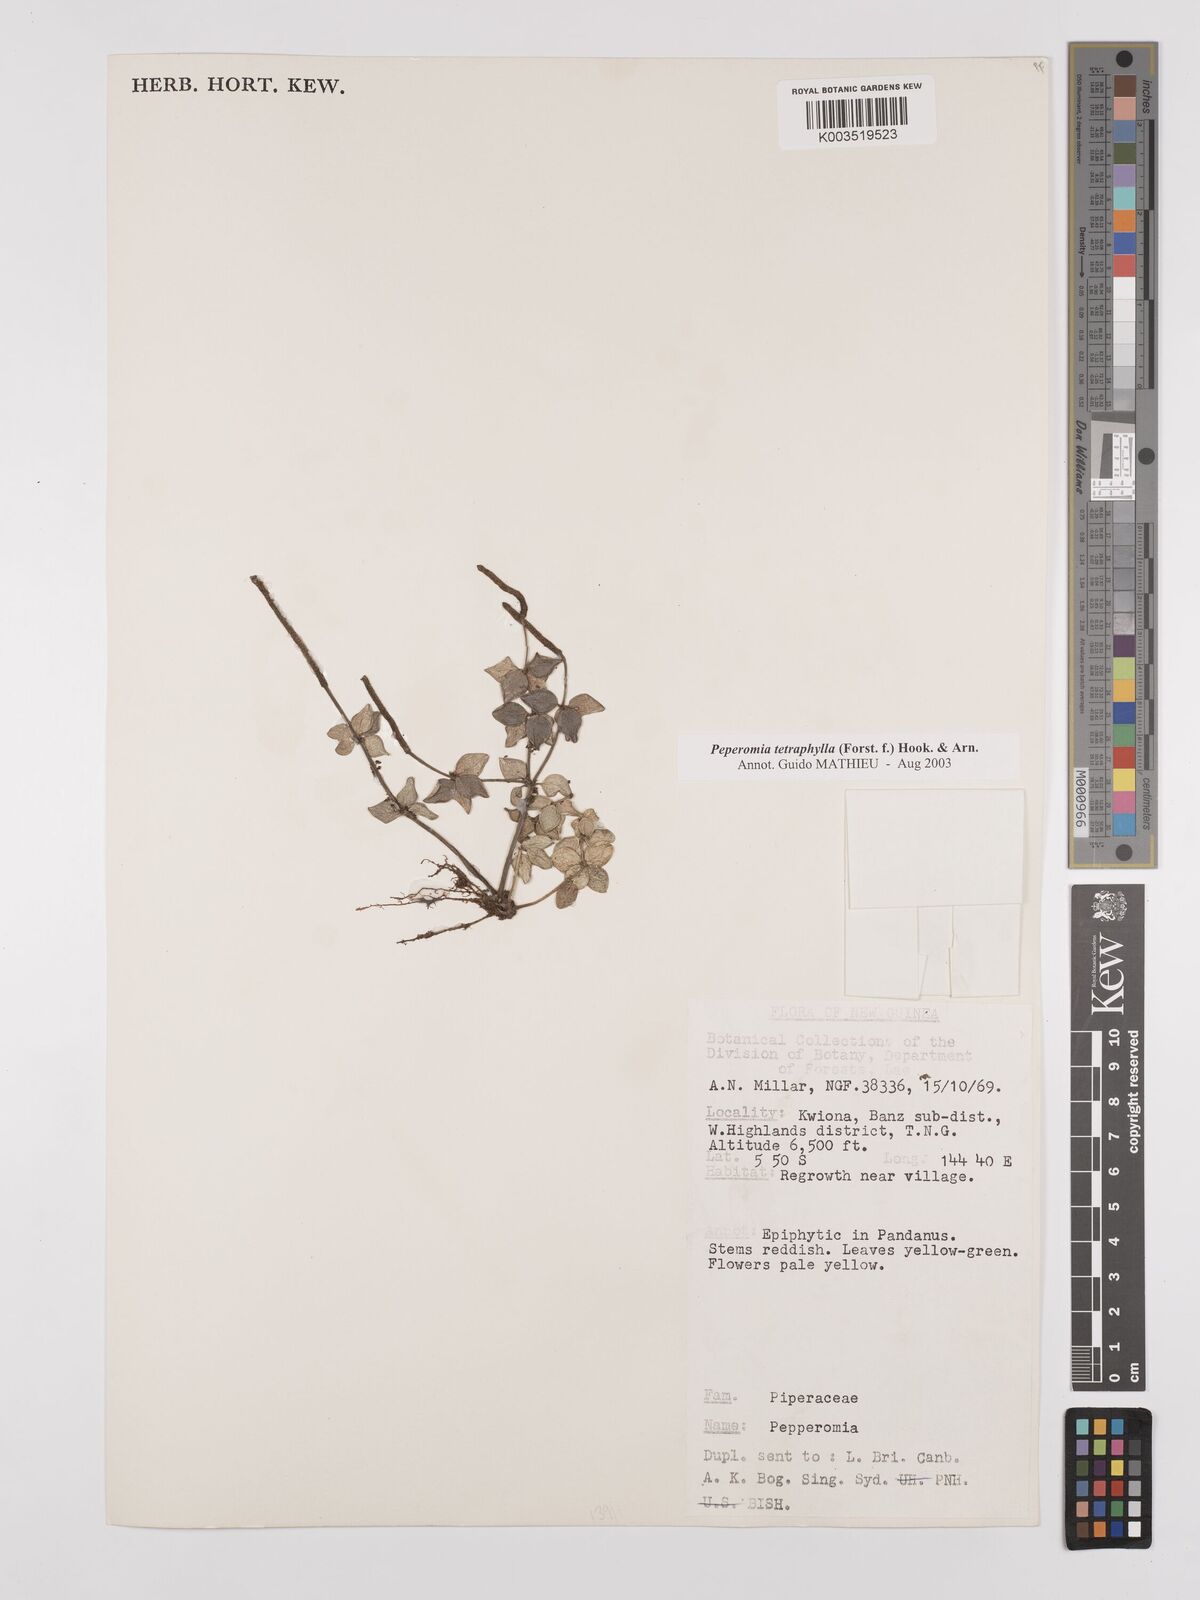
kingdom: Plantae
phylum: Tracheophyta
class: Magnoliopsida
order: Piperales
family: Piperaceae
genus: Peperomia
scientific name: Peperomia tetraphylla
